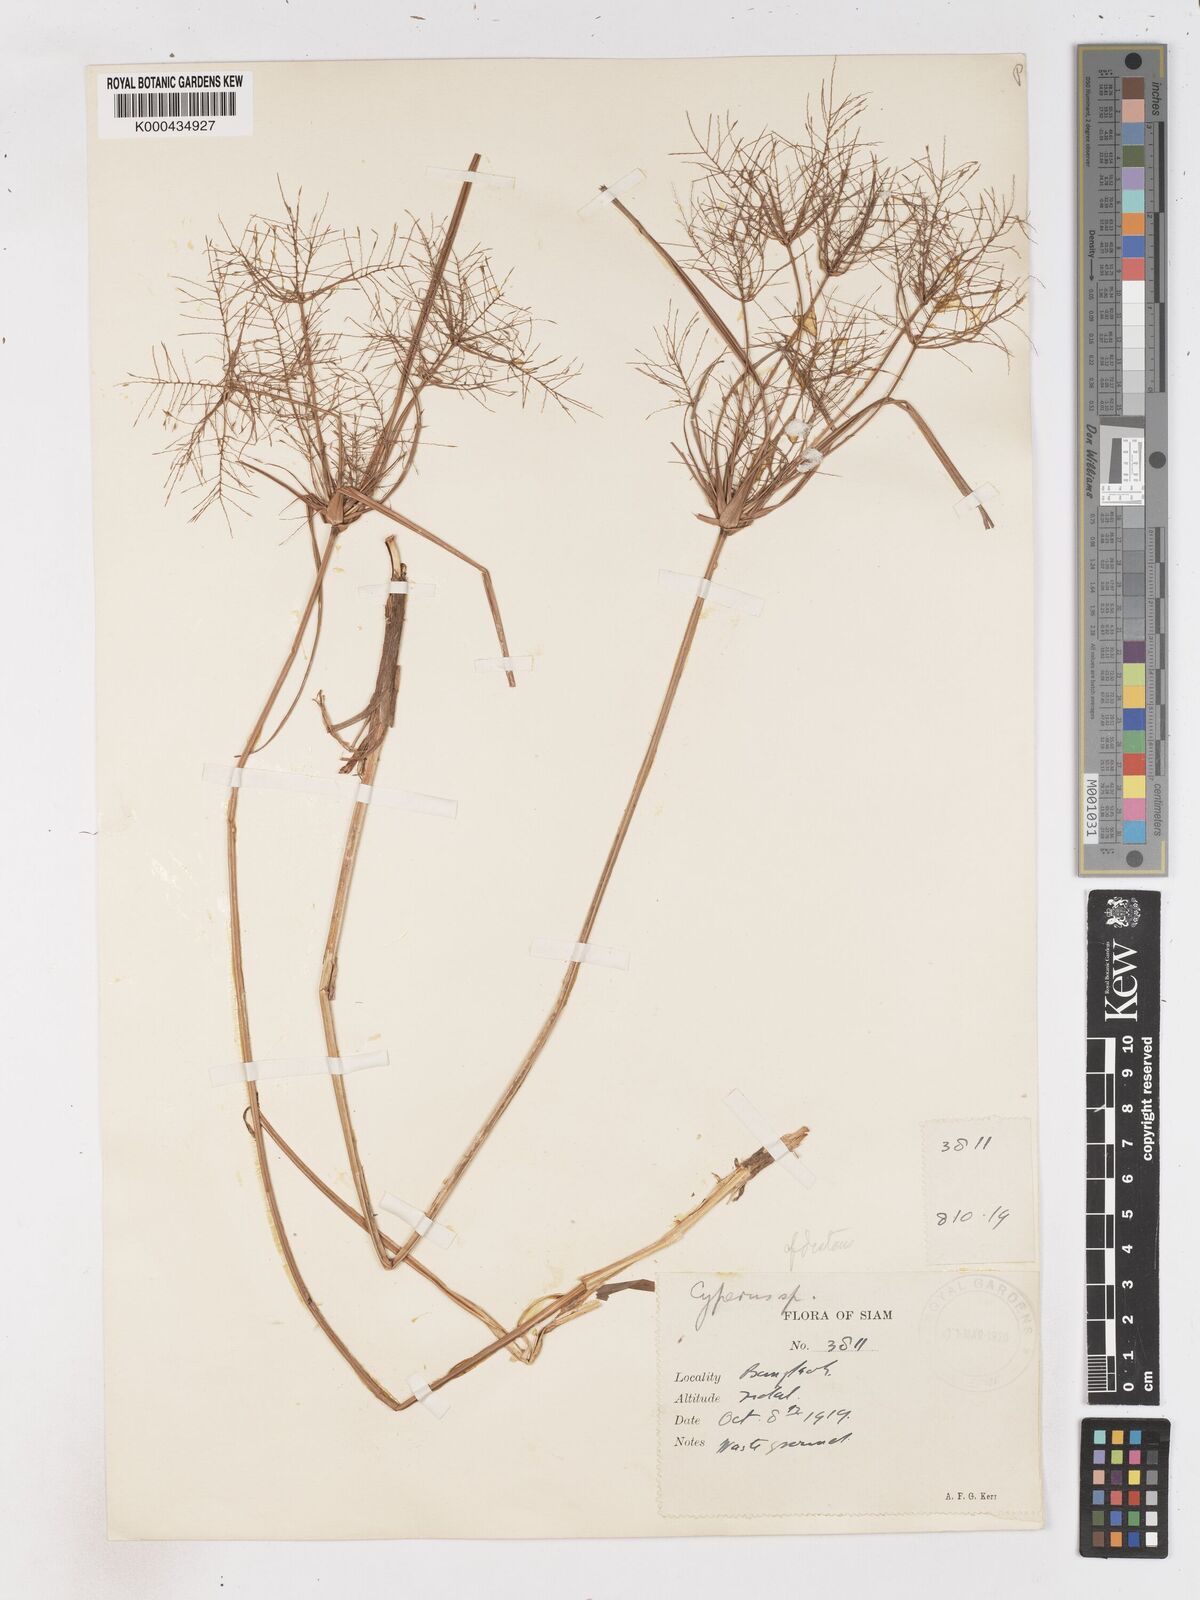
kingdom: Plantae
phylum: Tracheophyta
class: Liliopsida
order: Poales
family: Cyperaceae
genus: Cyperus
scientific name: Cyperus distans
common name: Slender cyperus
